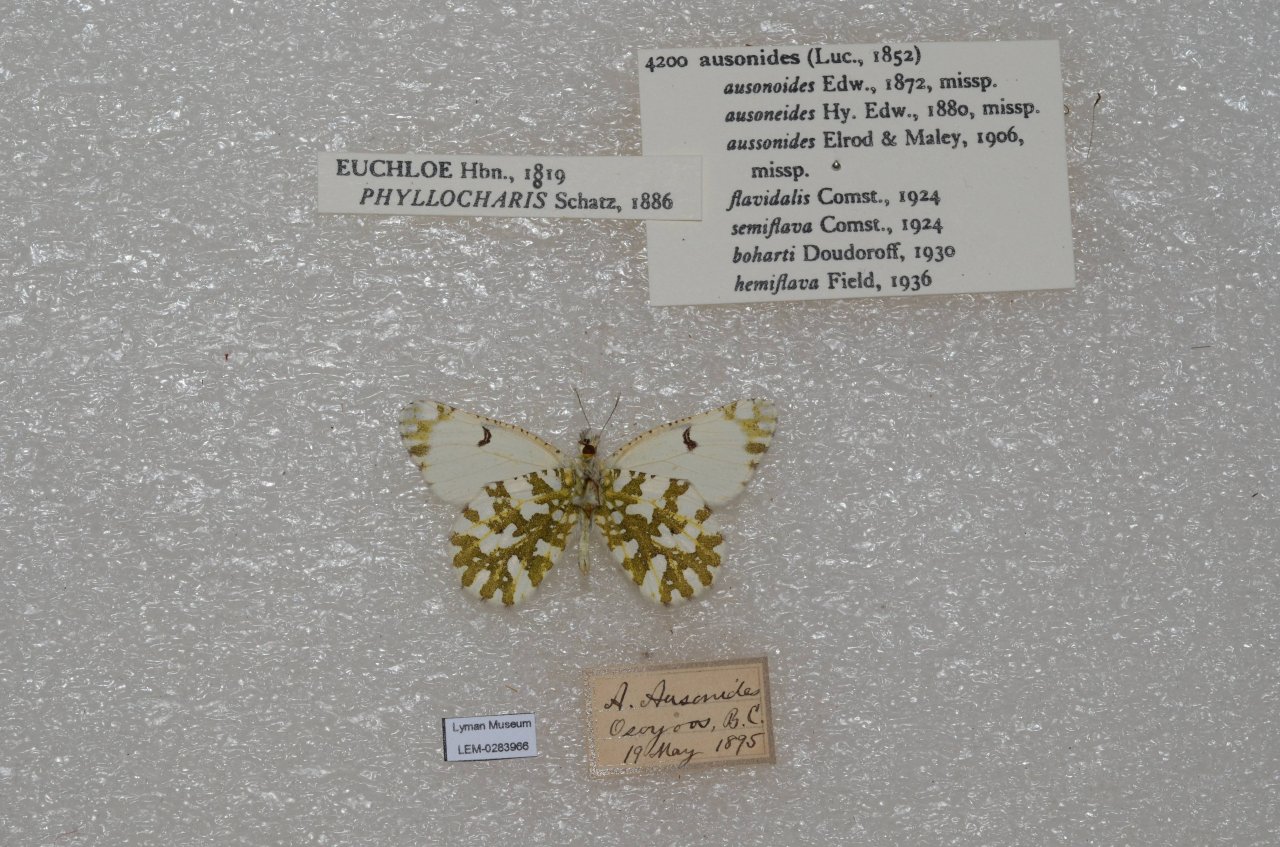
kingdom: Animalia
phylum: Arthropoda
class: Insecta
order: Lepidoptera
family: Pieridae
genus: Euchloe
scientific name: Euchloe ausonides
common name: Large Marble
